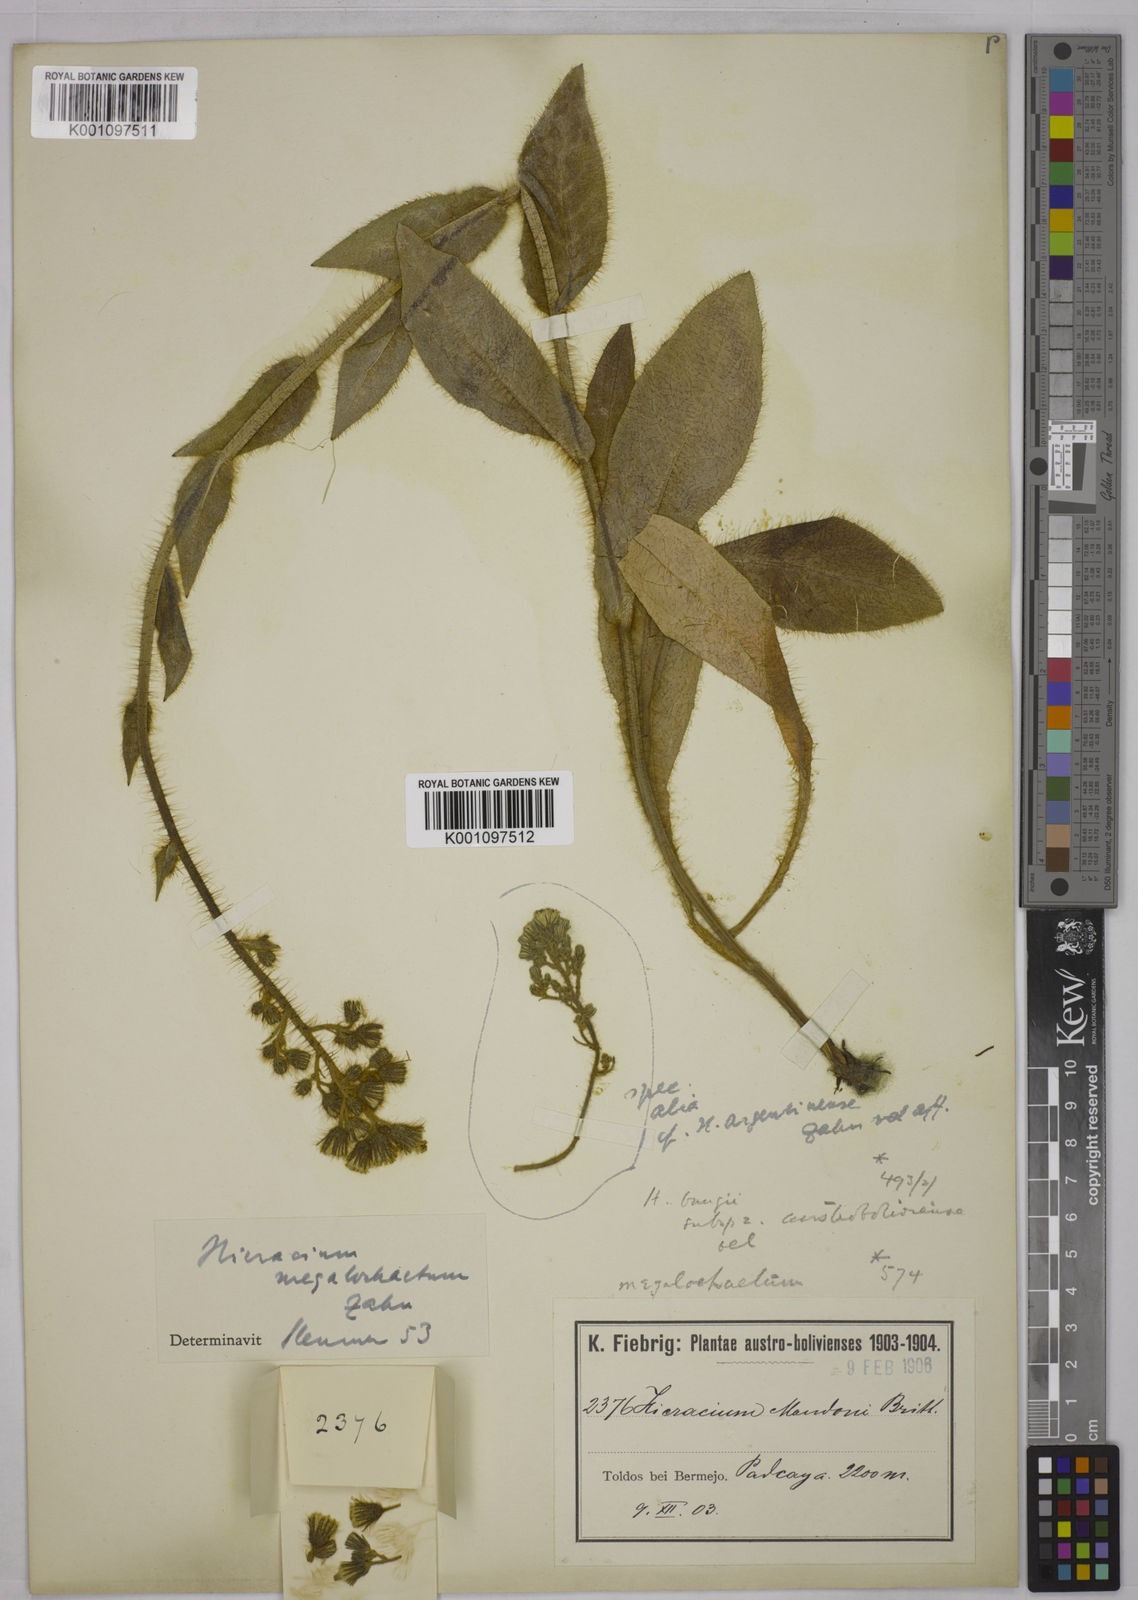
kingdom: Plantae
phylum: Tracheophyta
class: Magnoliopsida
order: Asterales
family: Asteraceae
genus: Hieracium
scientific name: Hieracium microcephalum
